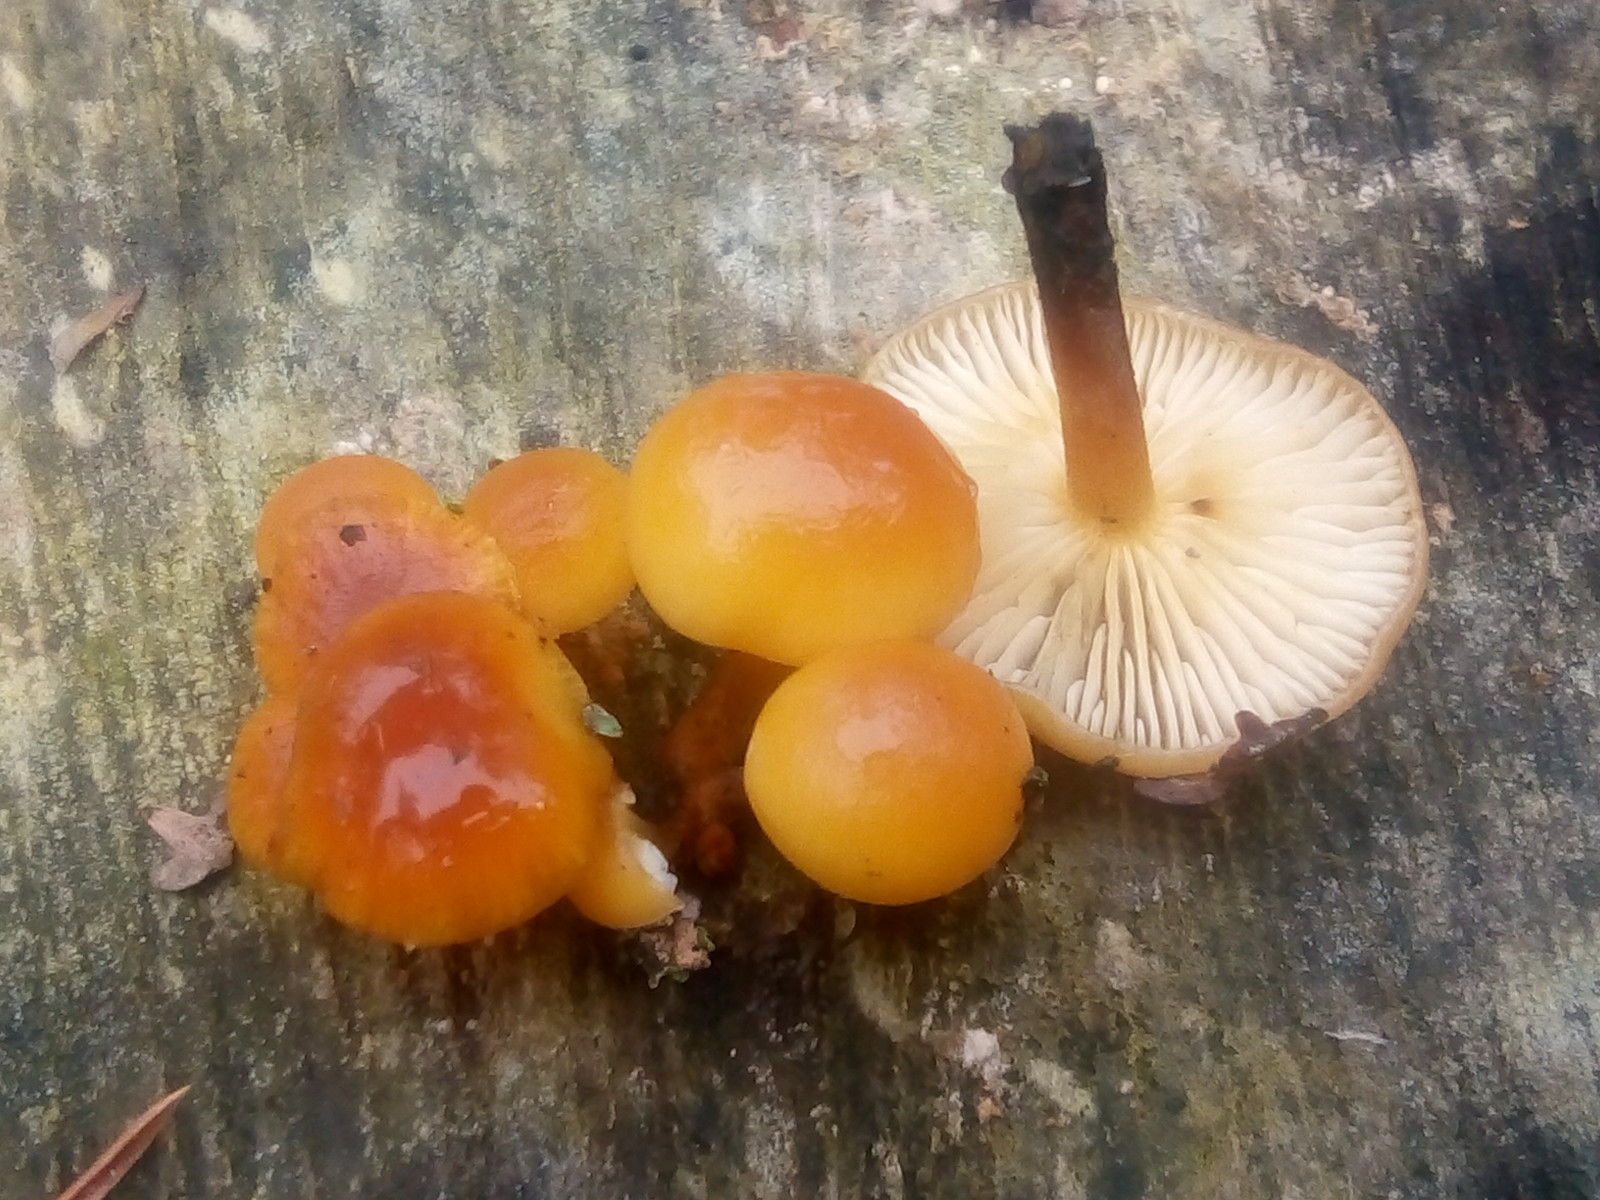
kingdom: Fungi
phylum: Basidiomycota
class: Agaricomycetes
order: Agaricales
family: Physalacriaceae
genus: Flammulina
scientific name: Flammulina velutipes
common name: gul fløjlsfod
